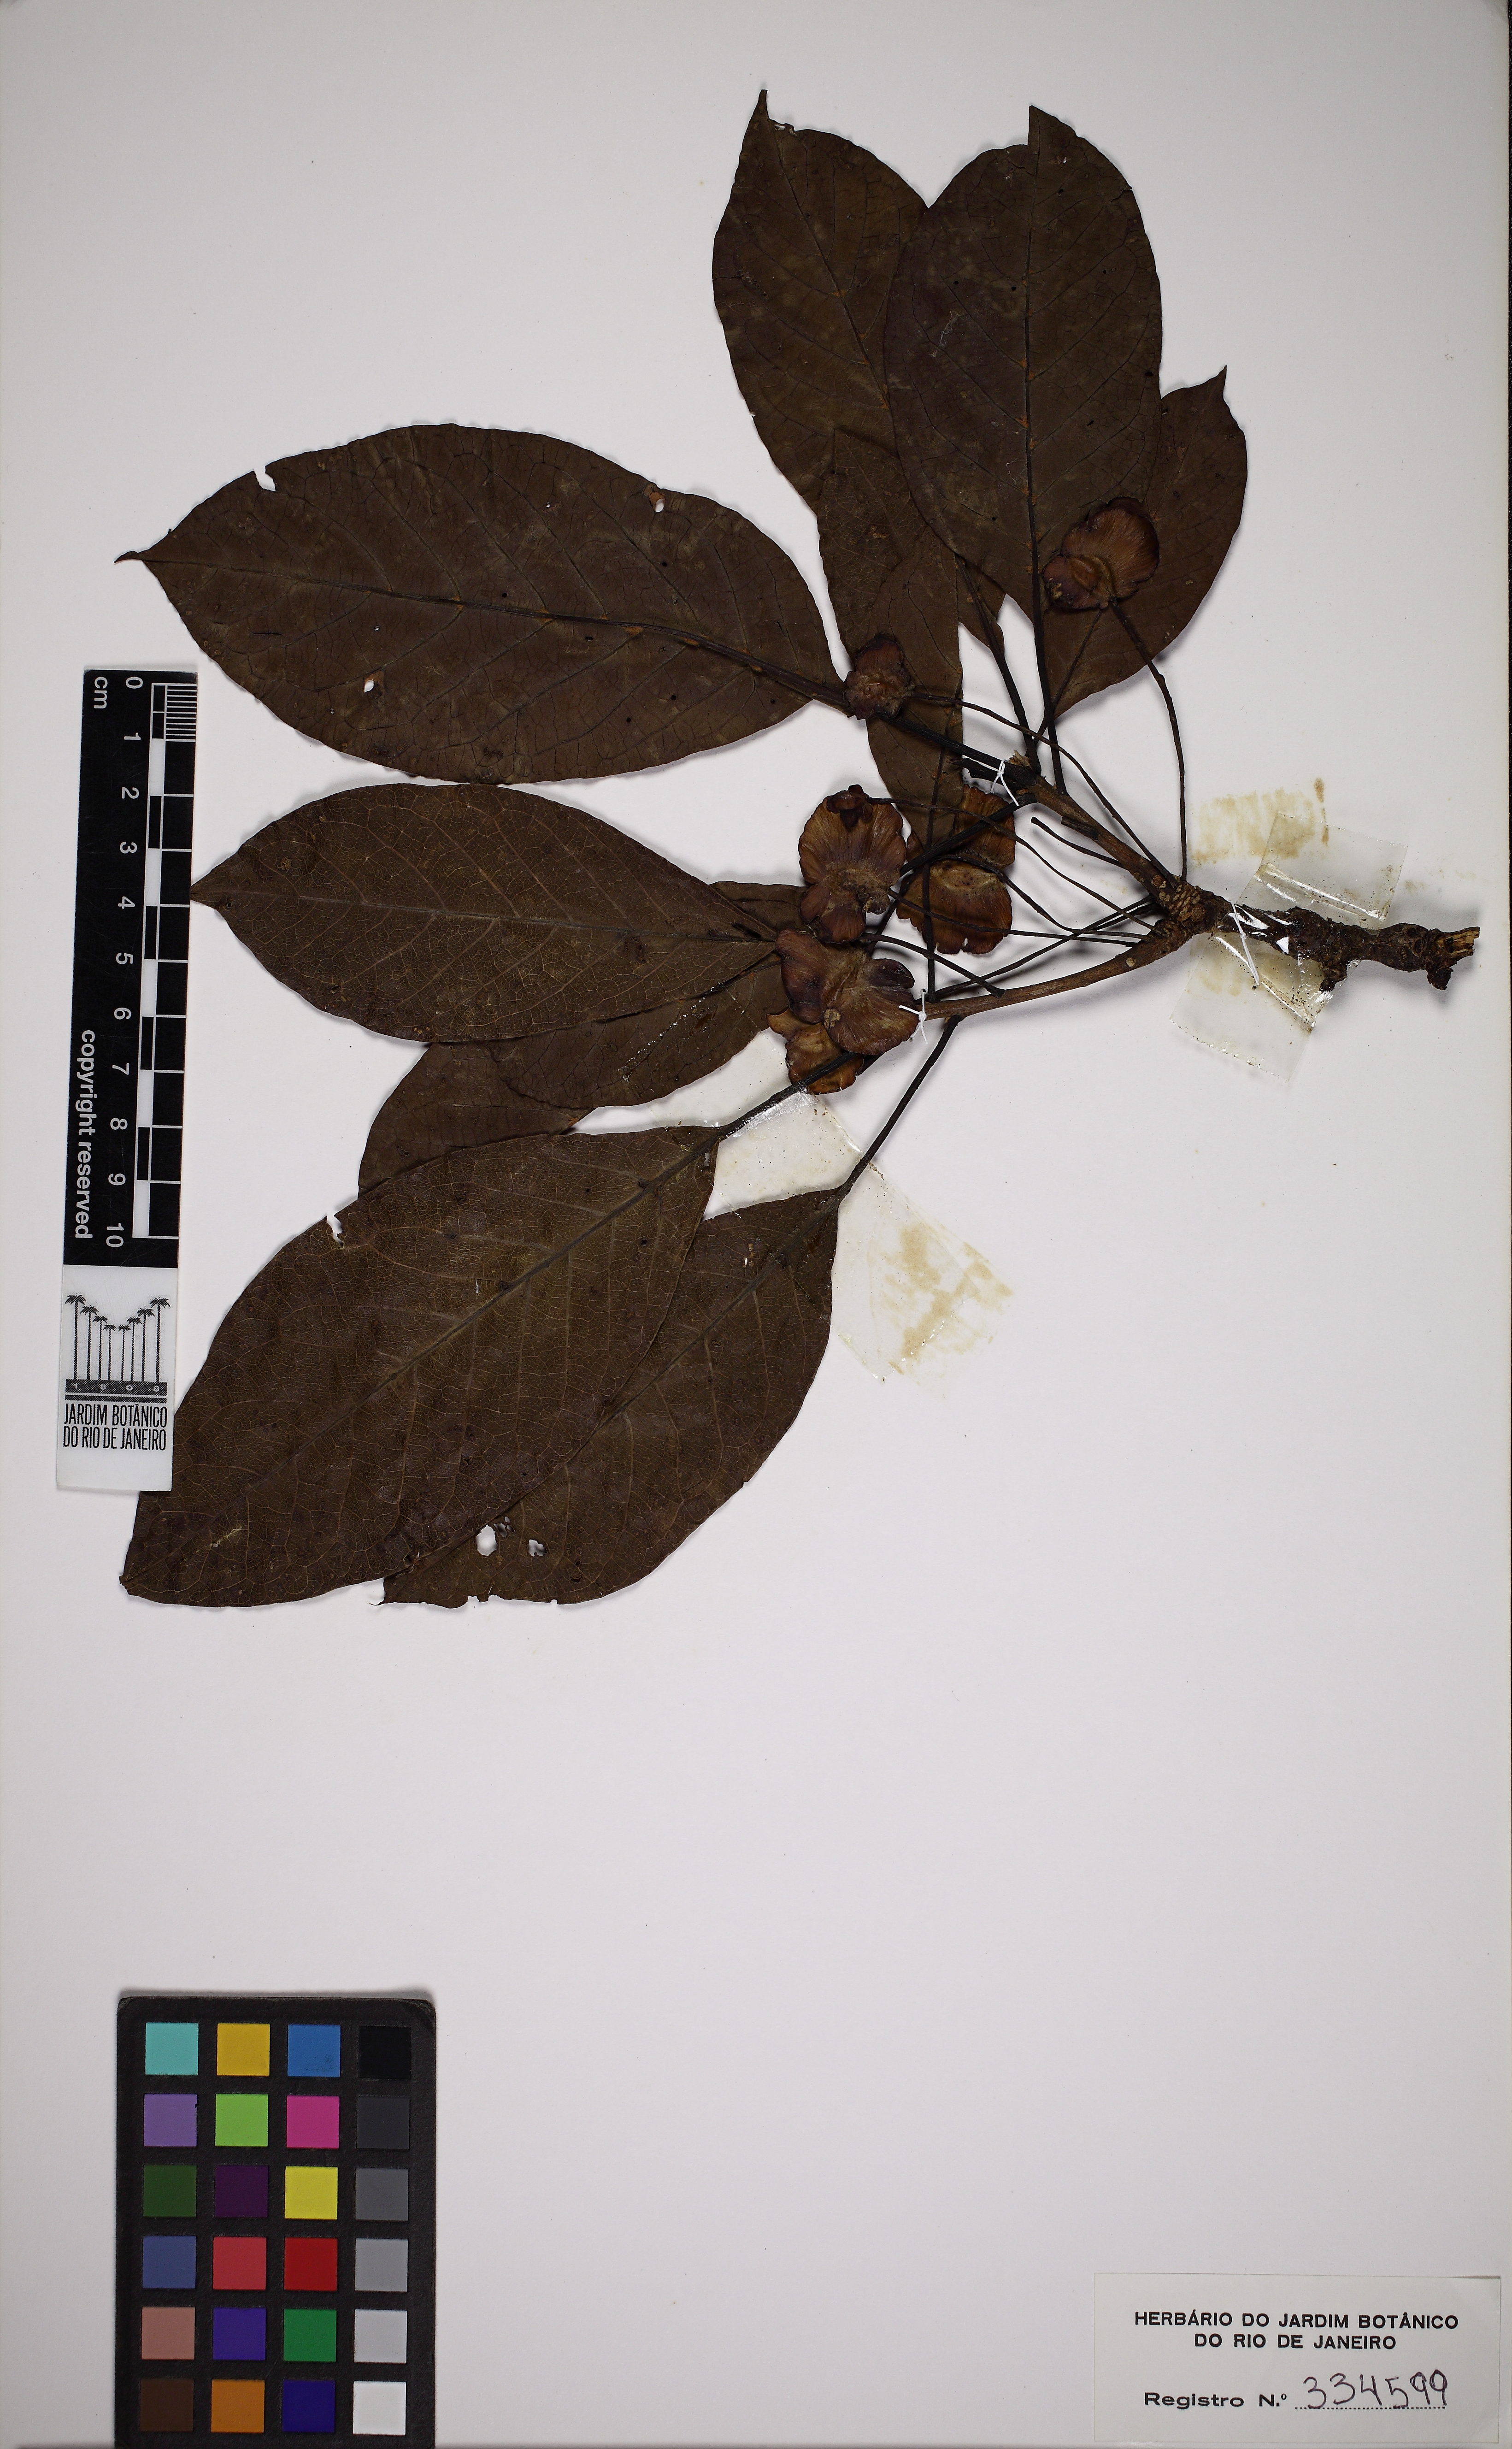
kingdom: Plantae
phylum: Tracheophyta
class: Magnoliopsida
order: Myrtales
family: Combretaceae
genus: Terminalia
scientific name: Terminalia phaeocarpa
